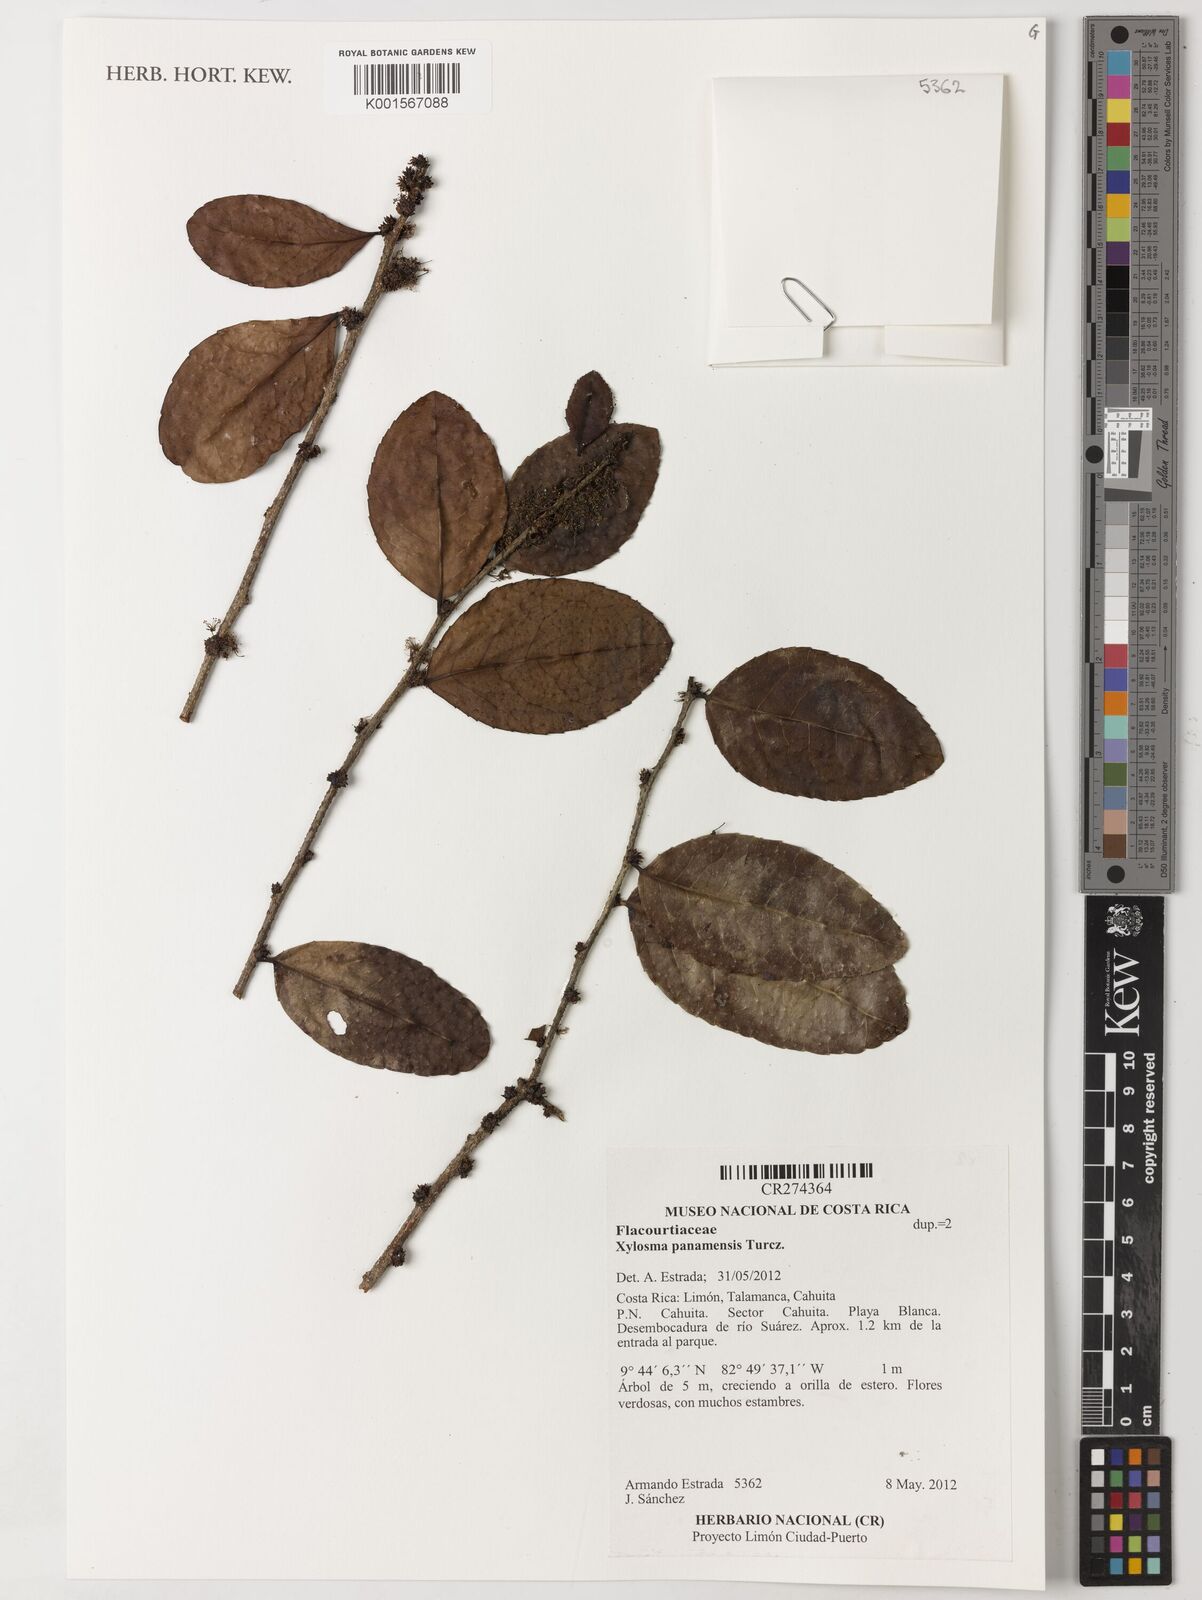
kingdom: Plantae
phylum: Tracheophyta
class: Magnoliopsida
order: Malpighiales
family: Salicaceae
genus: Xylosma
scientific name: Xylosma panamensis
